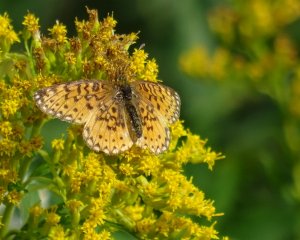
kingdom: Animalia
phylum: Arthropoda
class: Insecta
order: Lepidoptera
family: Nymphalidae
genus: Boloria
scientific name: Boloria selene
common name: Silver-bordered Fritillary
